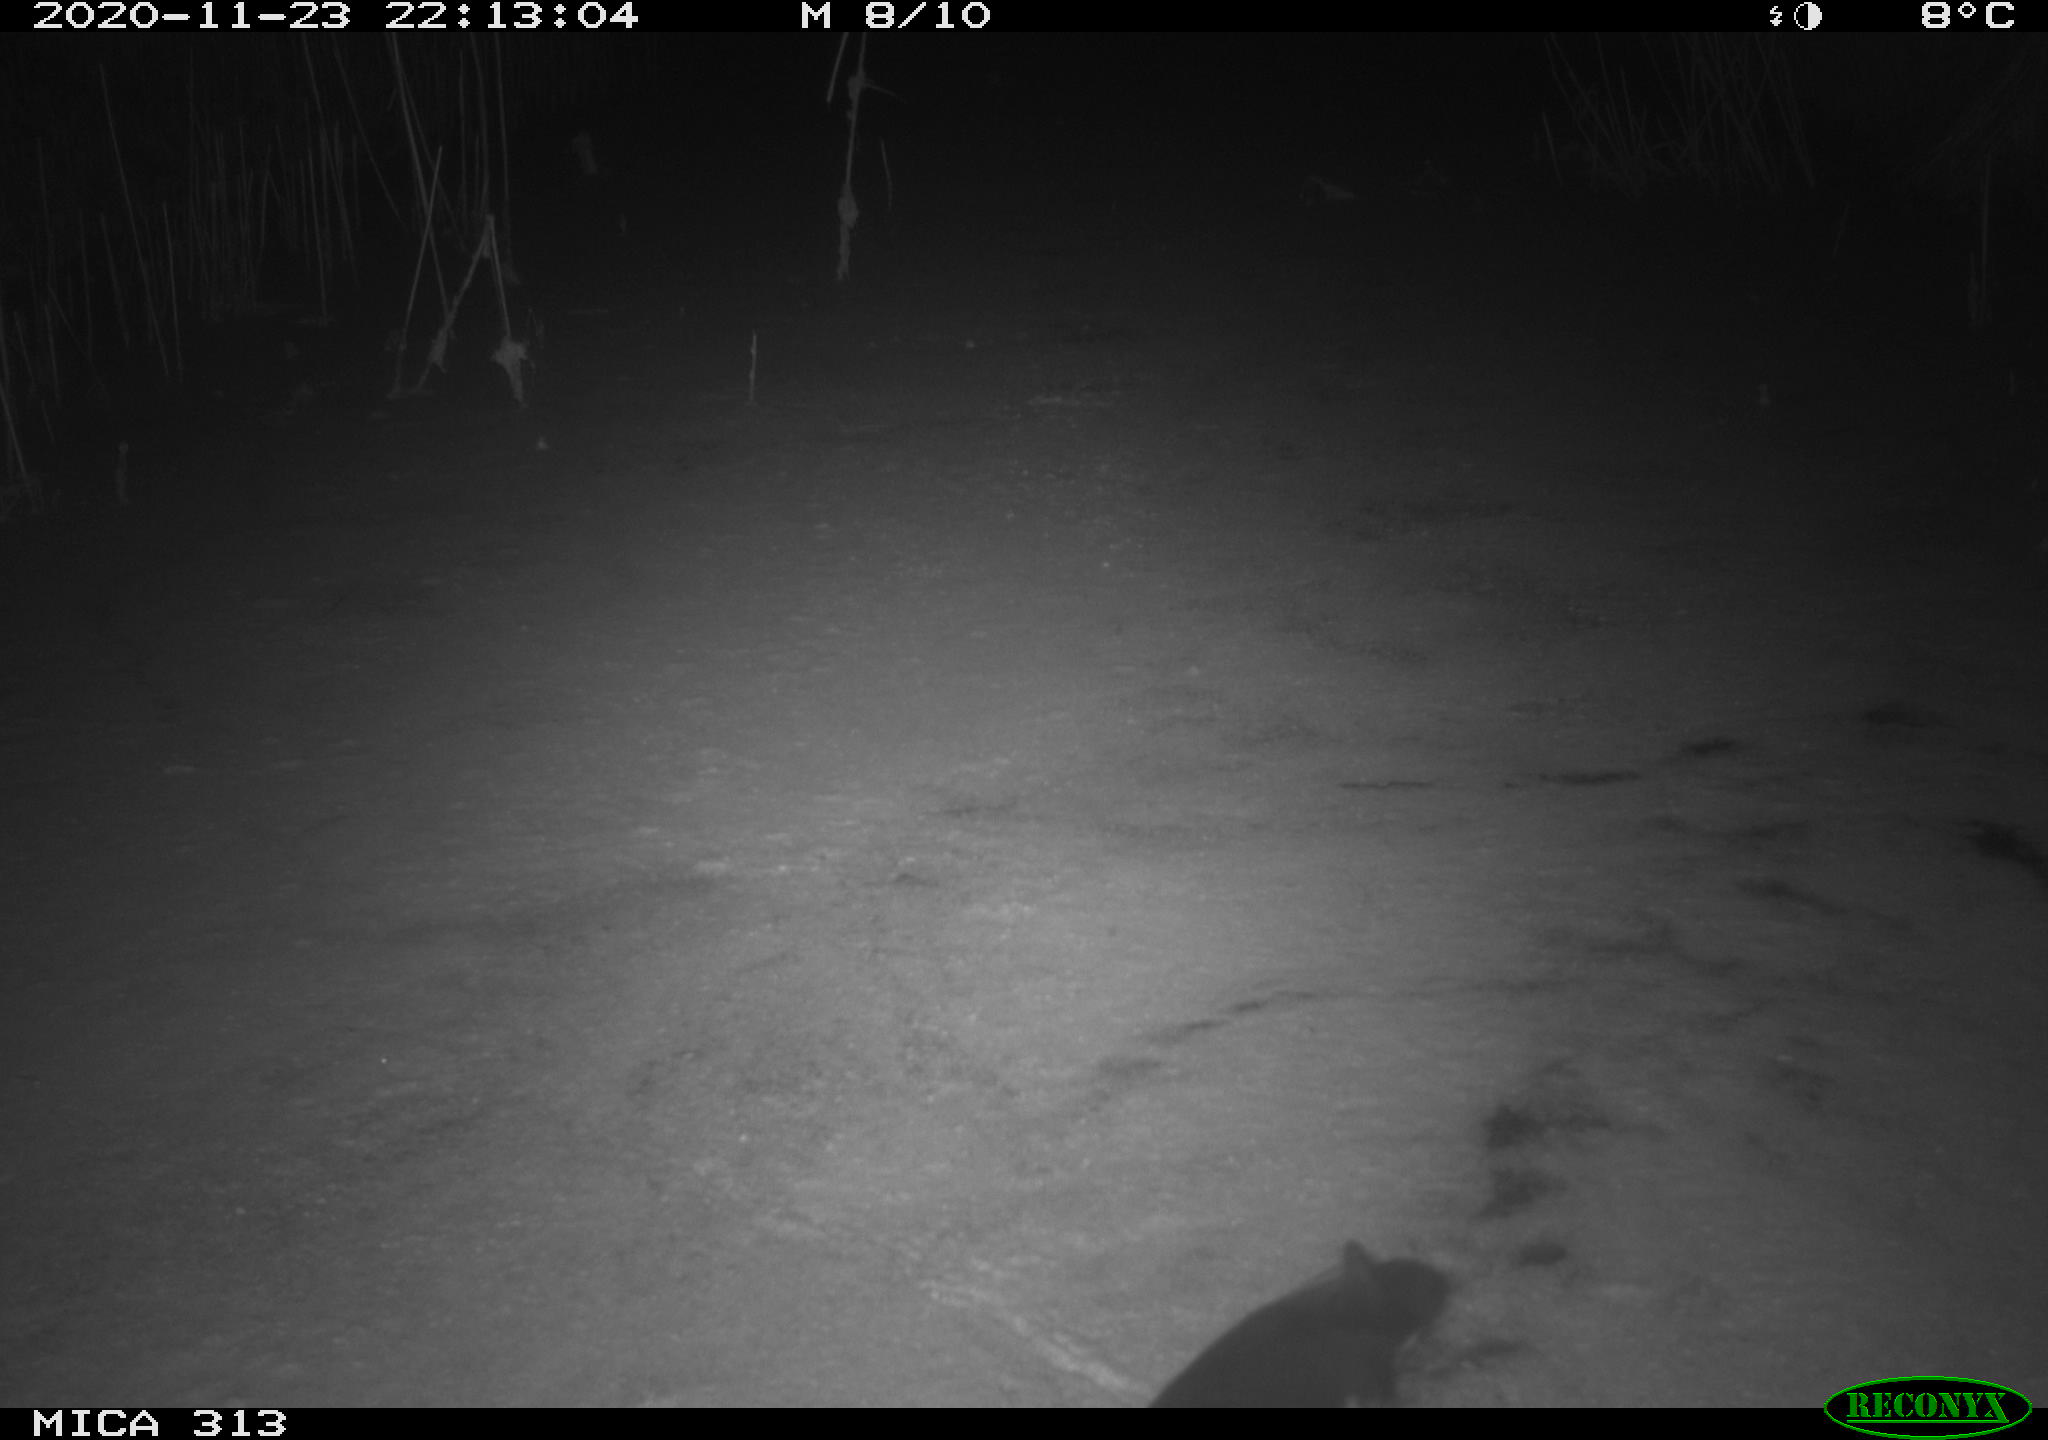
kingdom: Animalia
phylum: Chordata
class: Aves
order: Gruiformes
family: Rallidae
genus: Gallinula
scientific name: Gallinula chloropus
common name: Common moorhen
